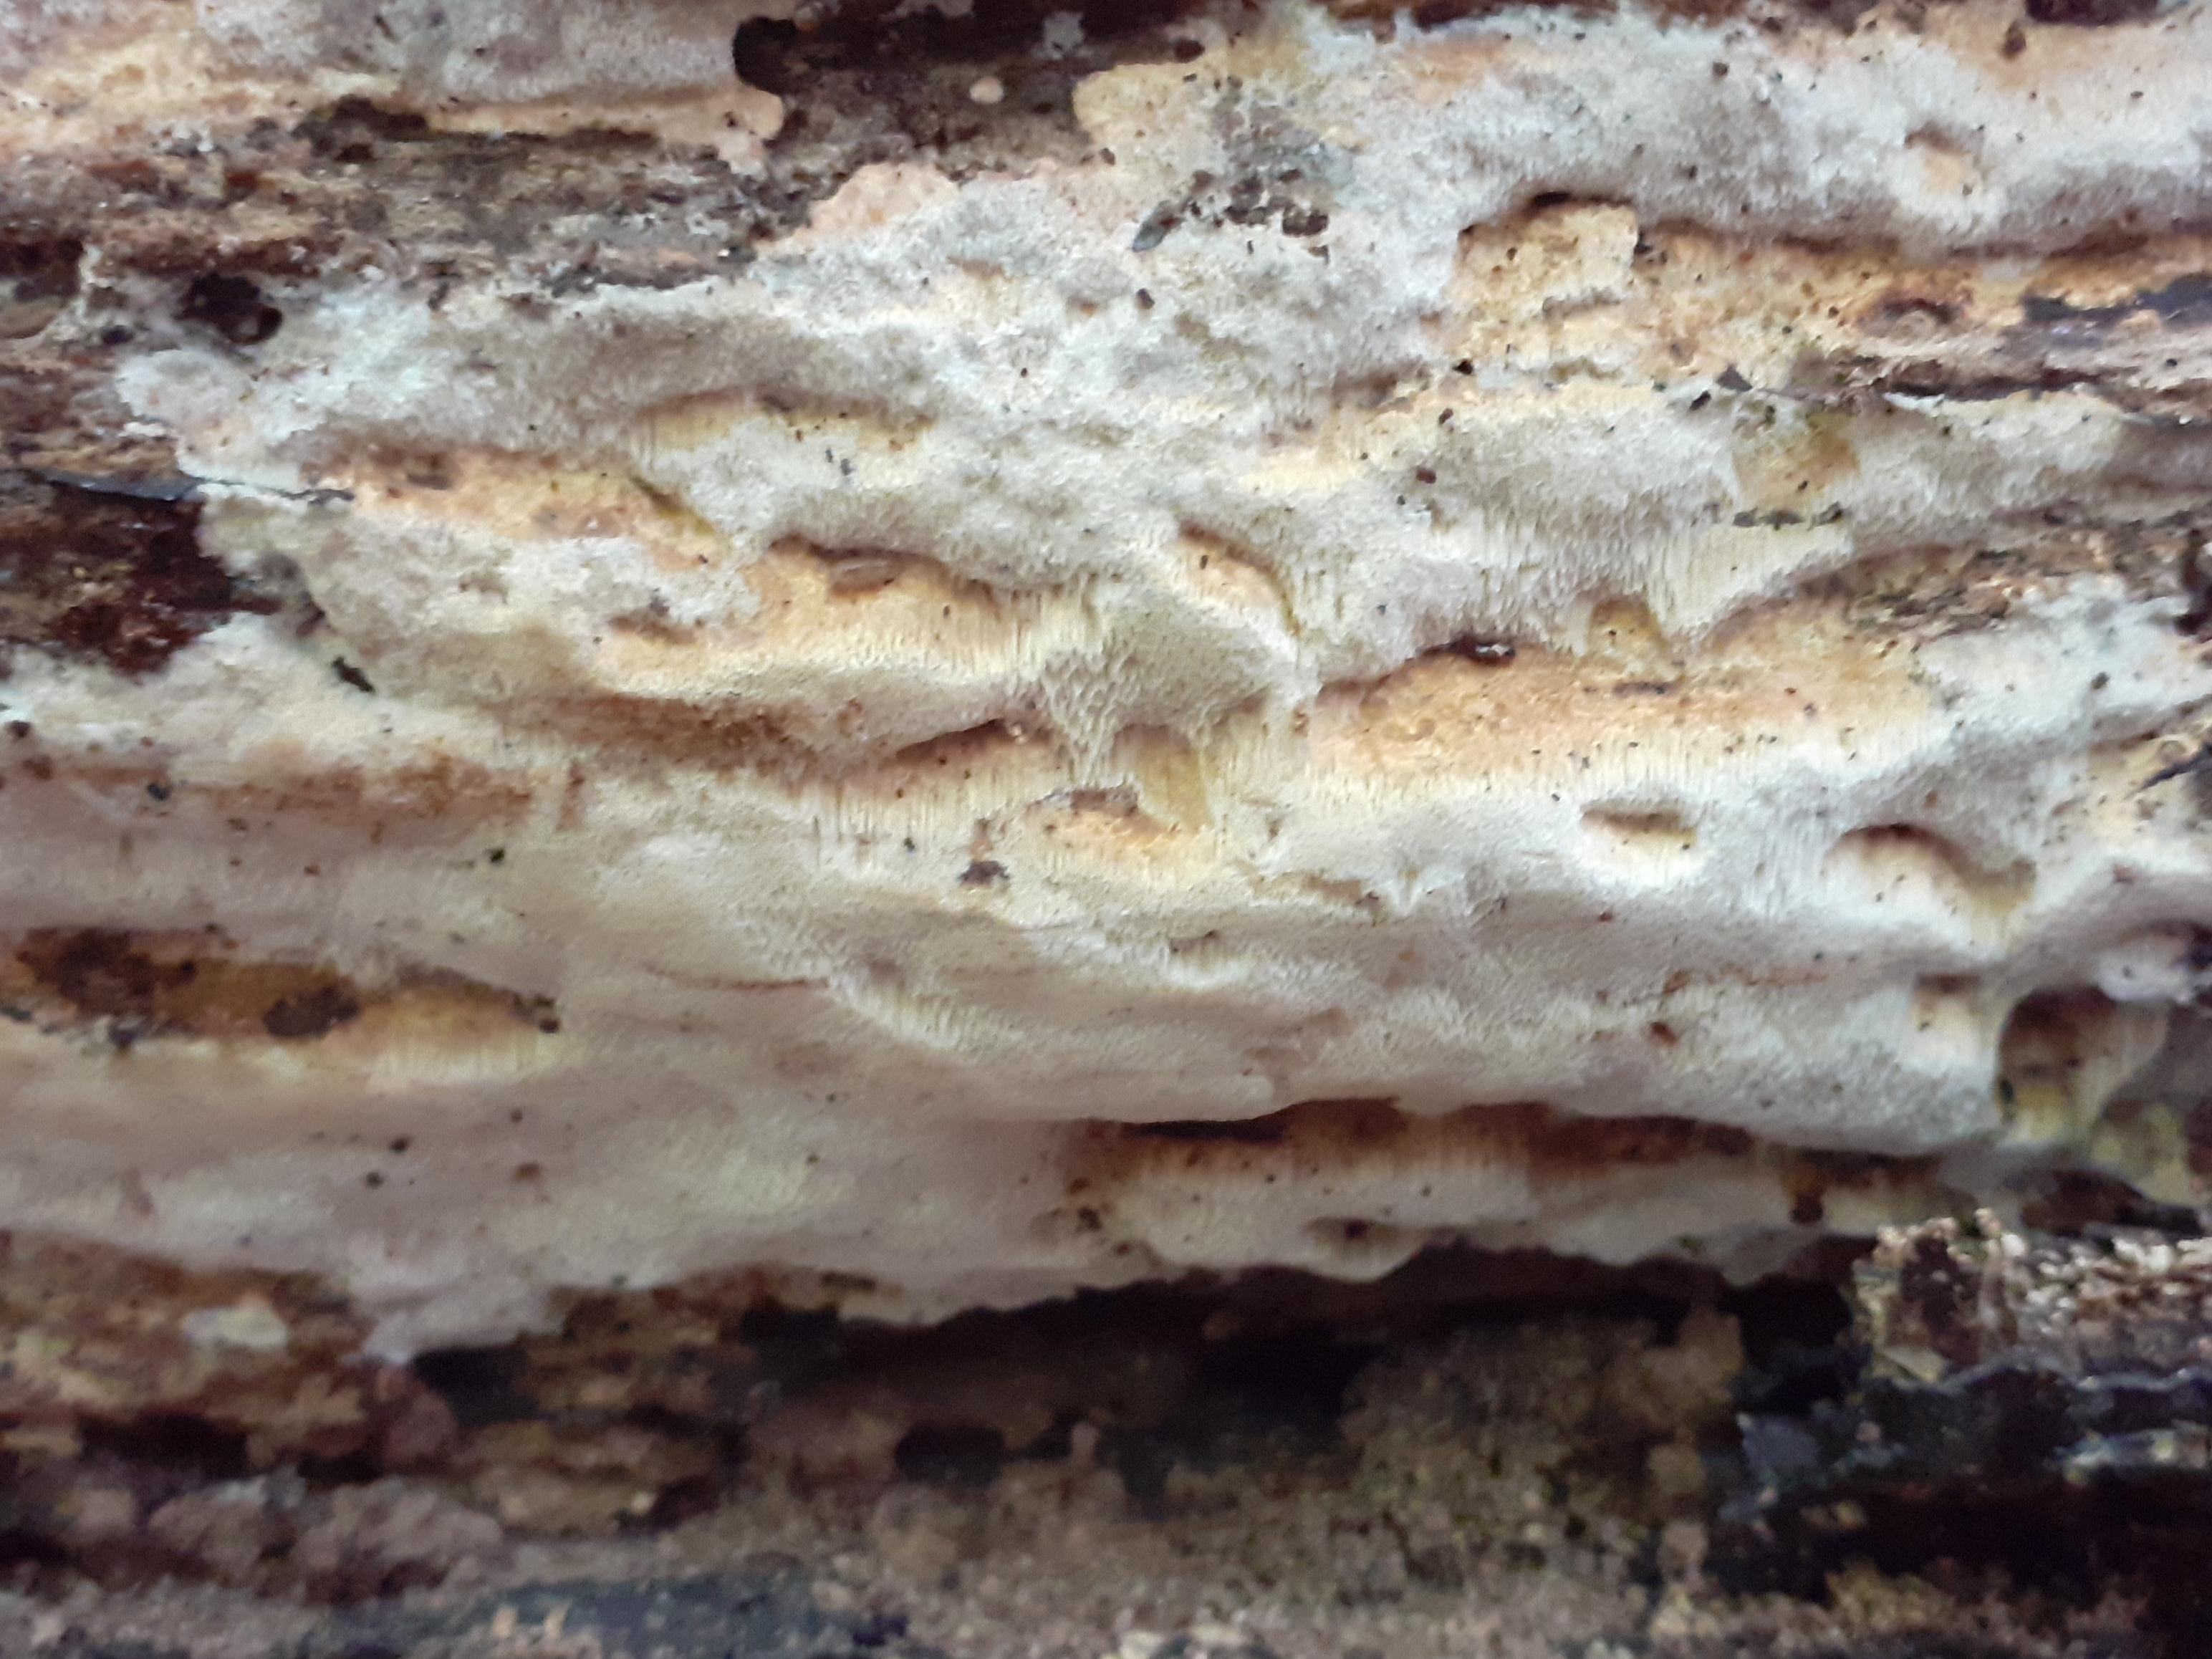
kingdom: Fungi
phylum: Basidiomycota
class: Agaricomycetes
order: Polyporales
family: Meruliaceae
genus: Mycoacia
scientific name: Mycoacia gilvescens
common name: rosa pastelporesvamp
